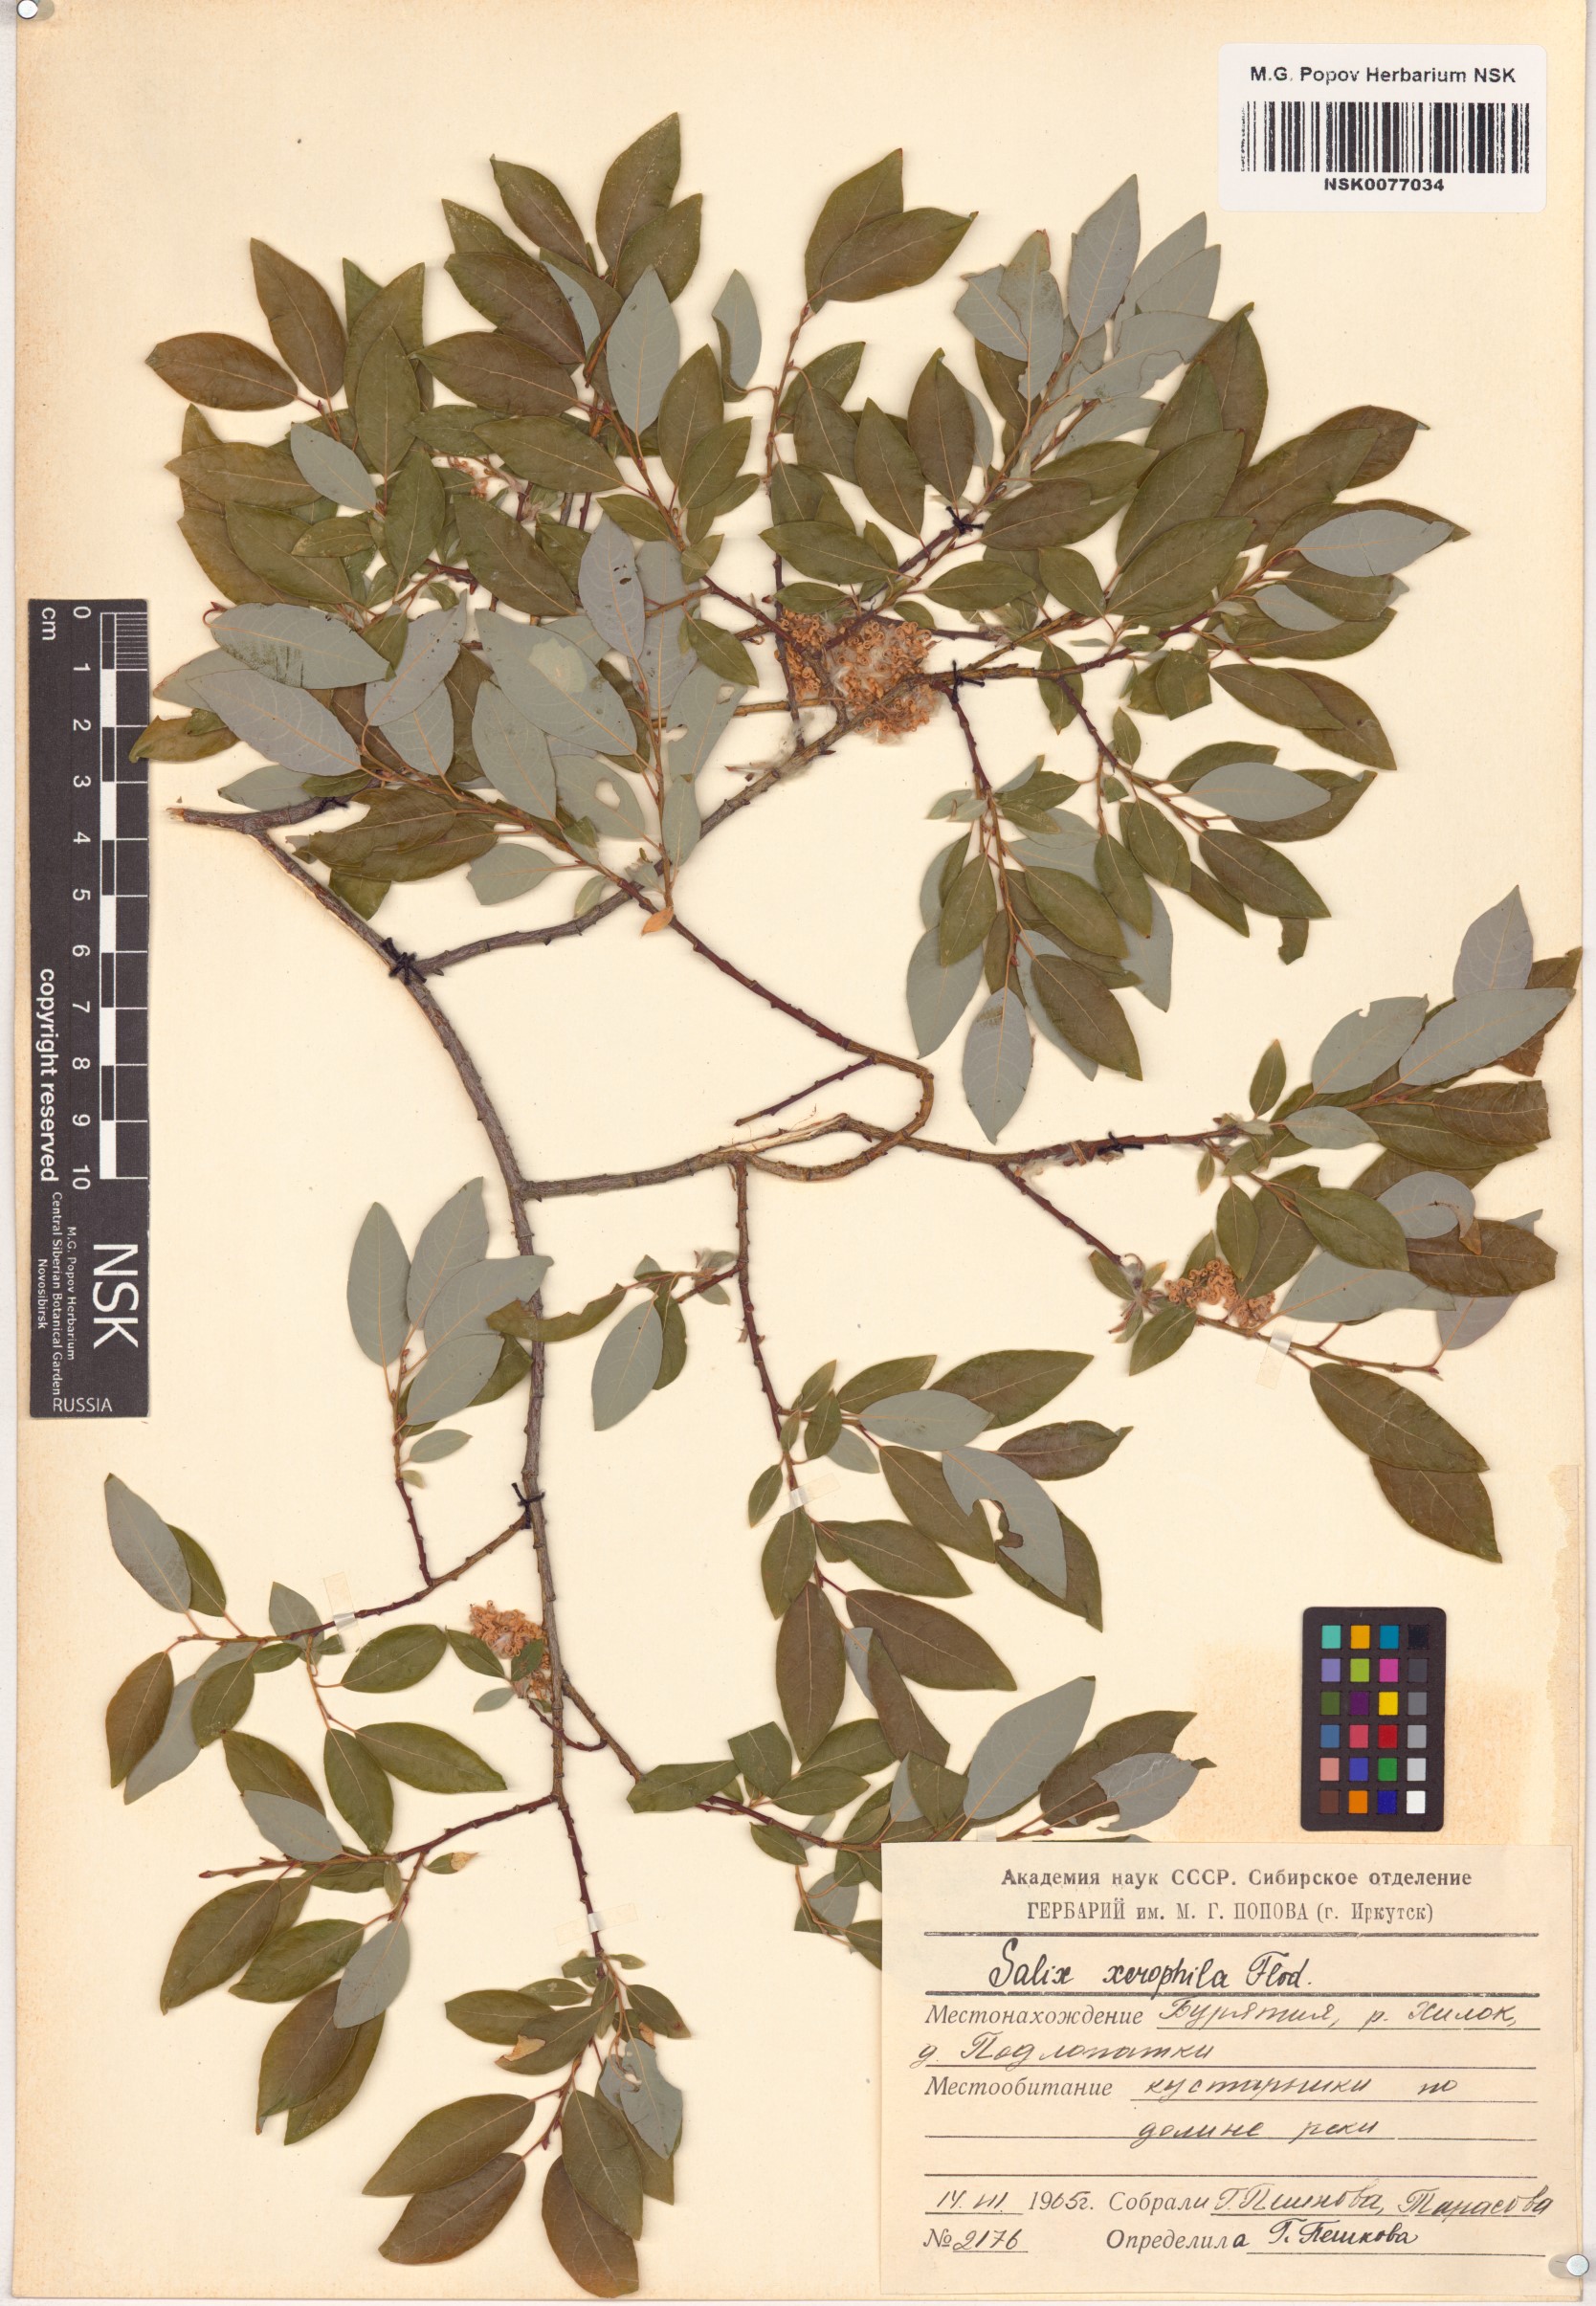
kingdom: Plantae
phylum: Tracheophyta
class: Magnoliopsida
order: Malpighiales
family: Salicaceae
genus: Salix
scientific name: Salix bebbiana
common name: Bebb's willow
